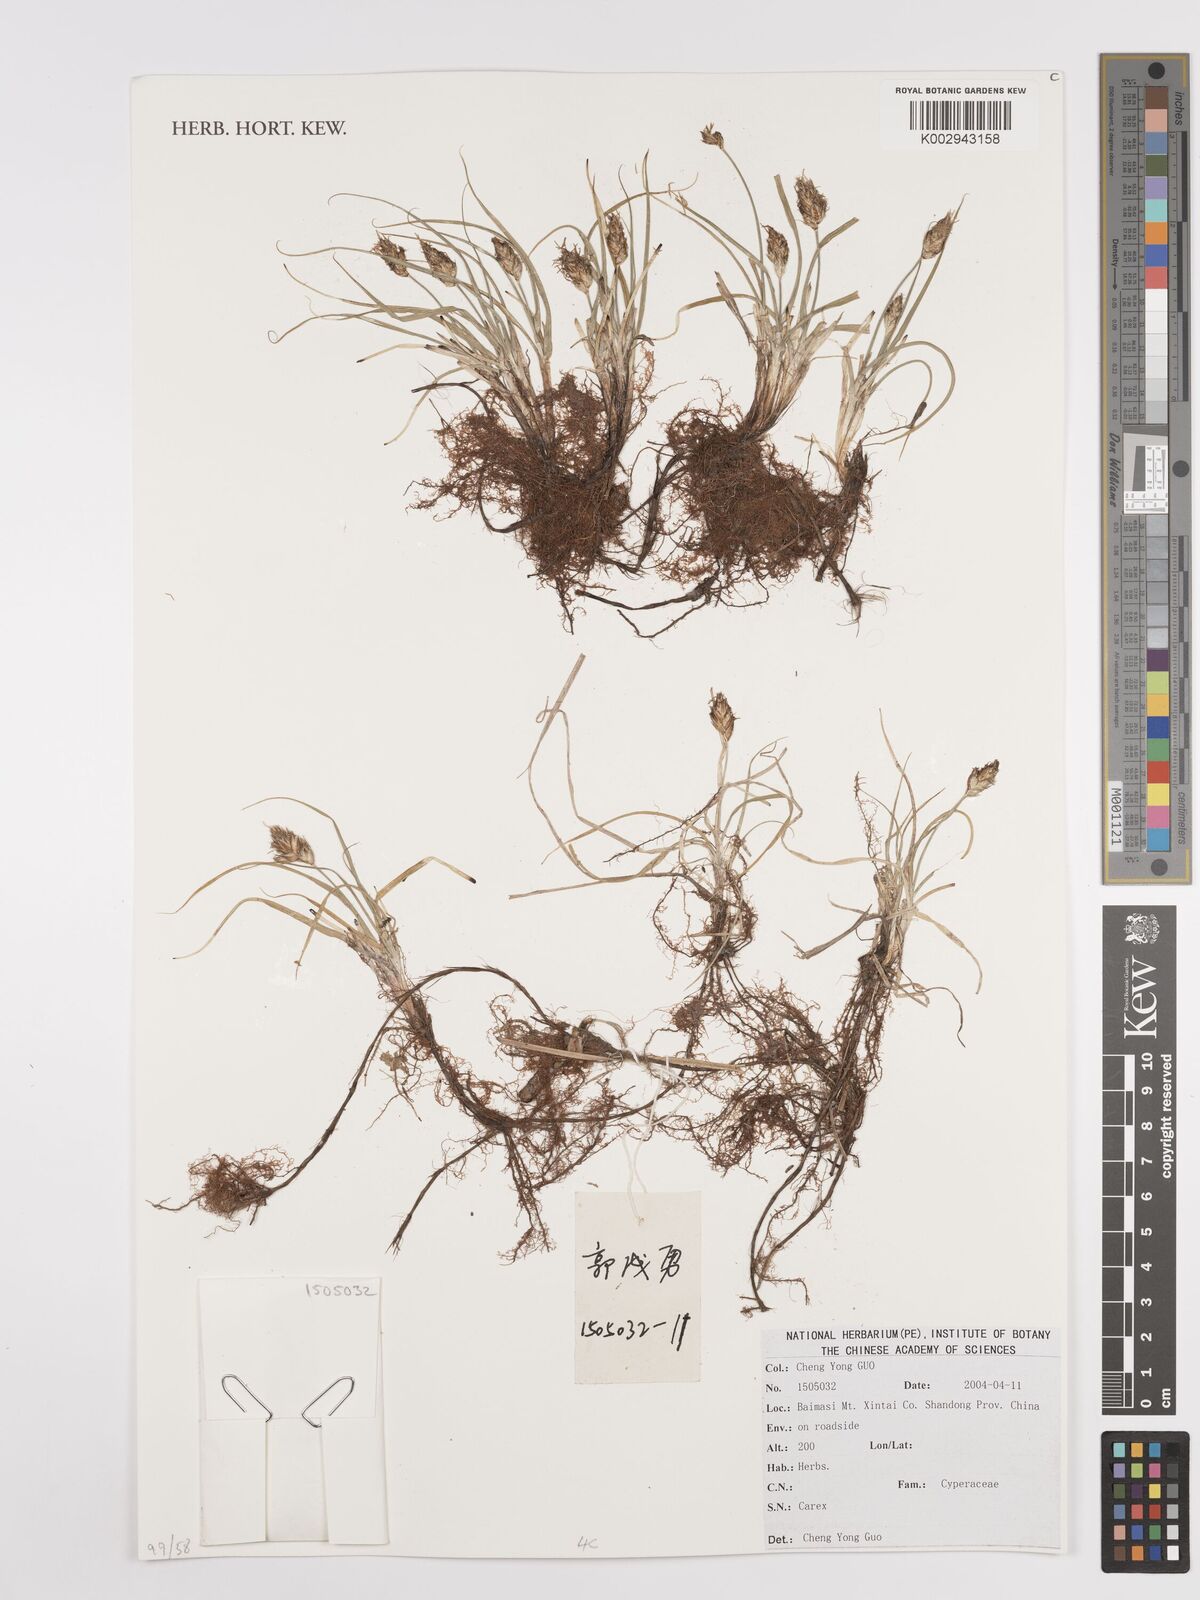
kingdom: Plantae
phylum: Tracheophyta
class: Liliopsida
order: Poales
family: Cyperaceae
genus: Carex
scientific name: Carex
